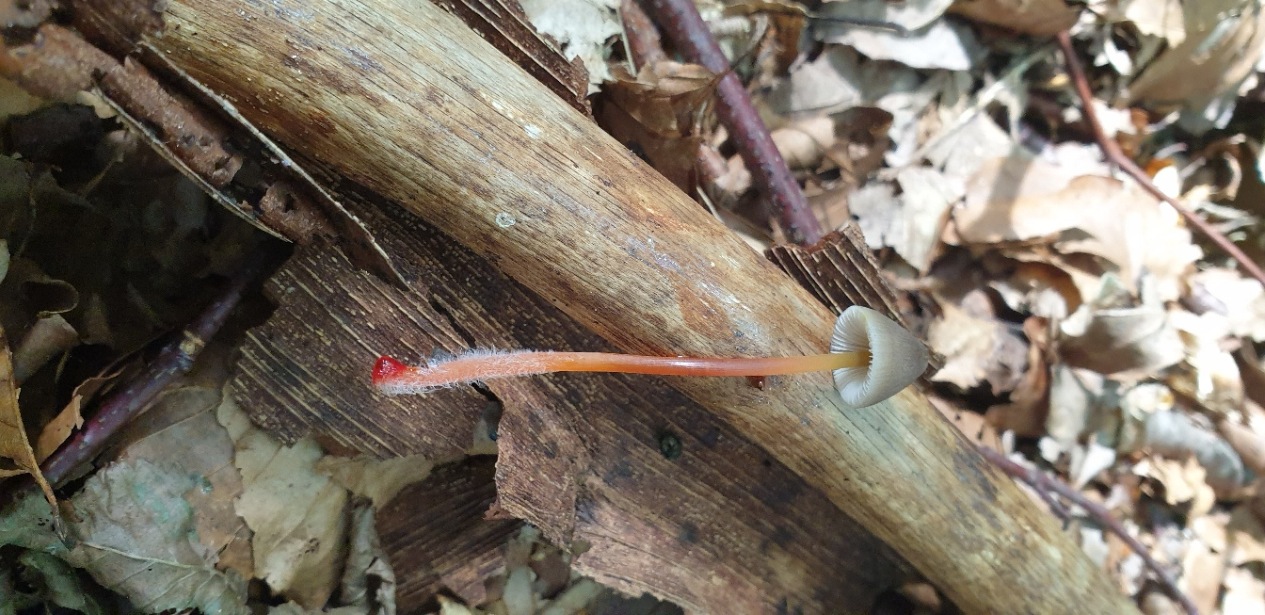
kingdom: Fungi
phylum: Basidiomycota
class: Agaricomycetes
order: Agaricales
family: Mycenaceae
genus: Mycena
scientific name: Mycena crocata
